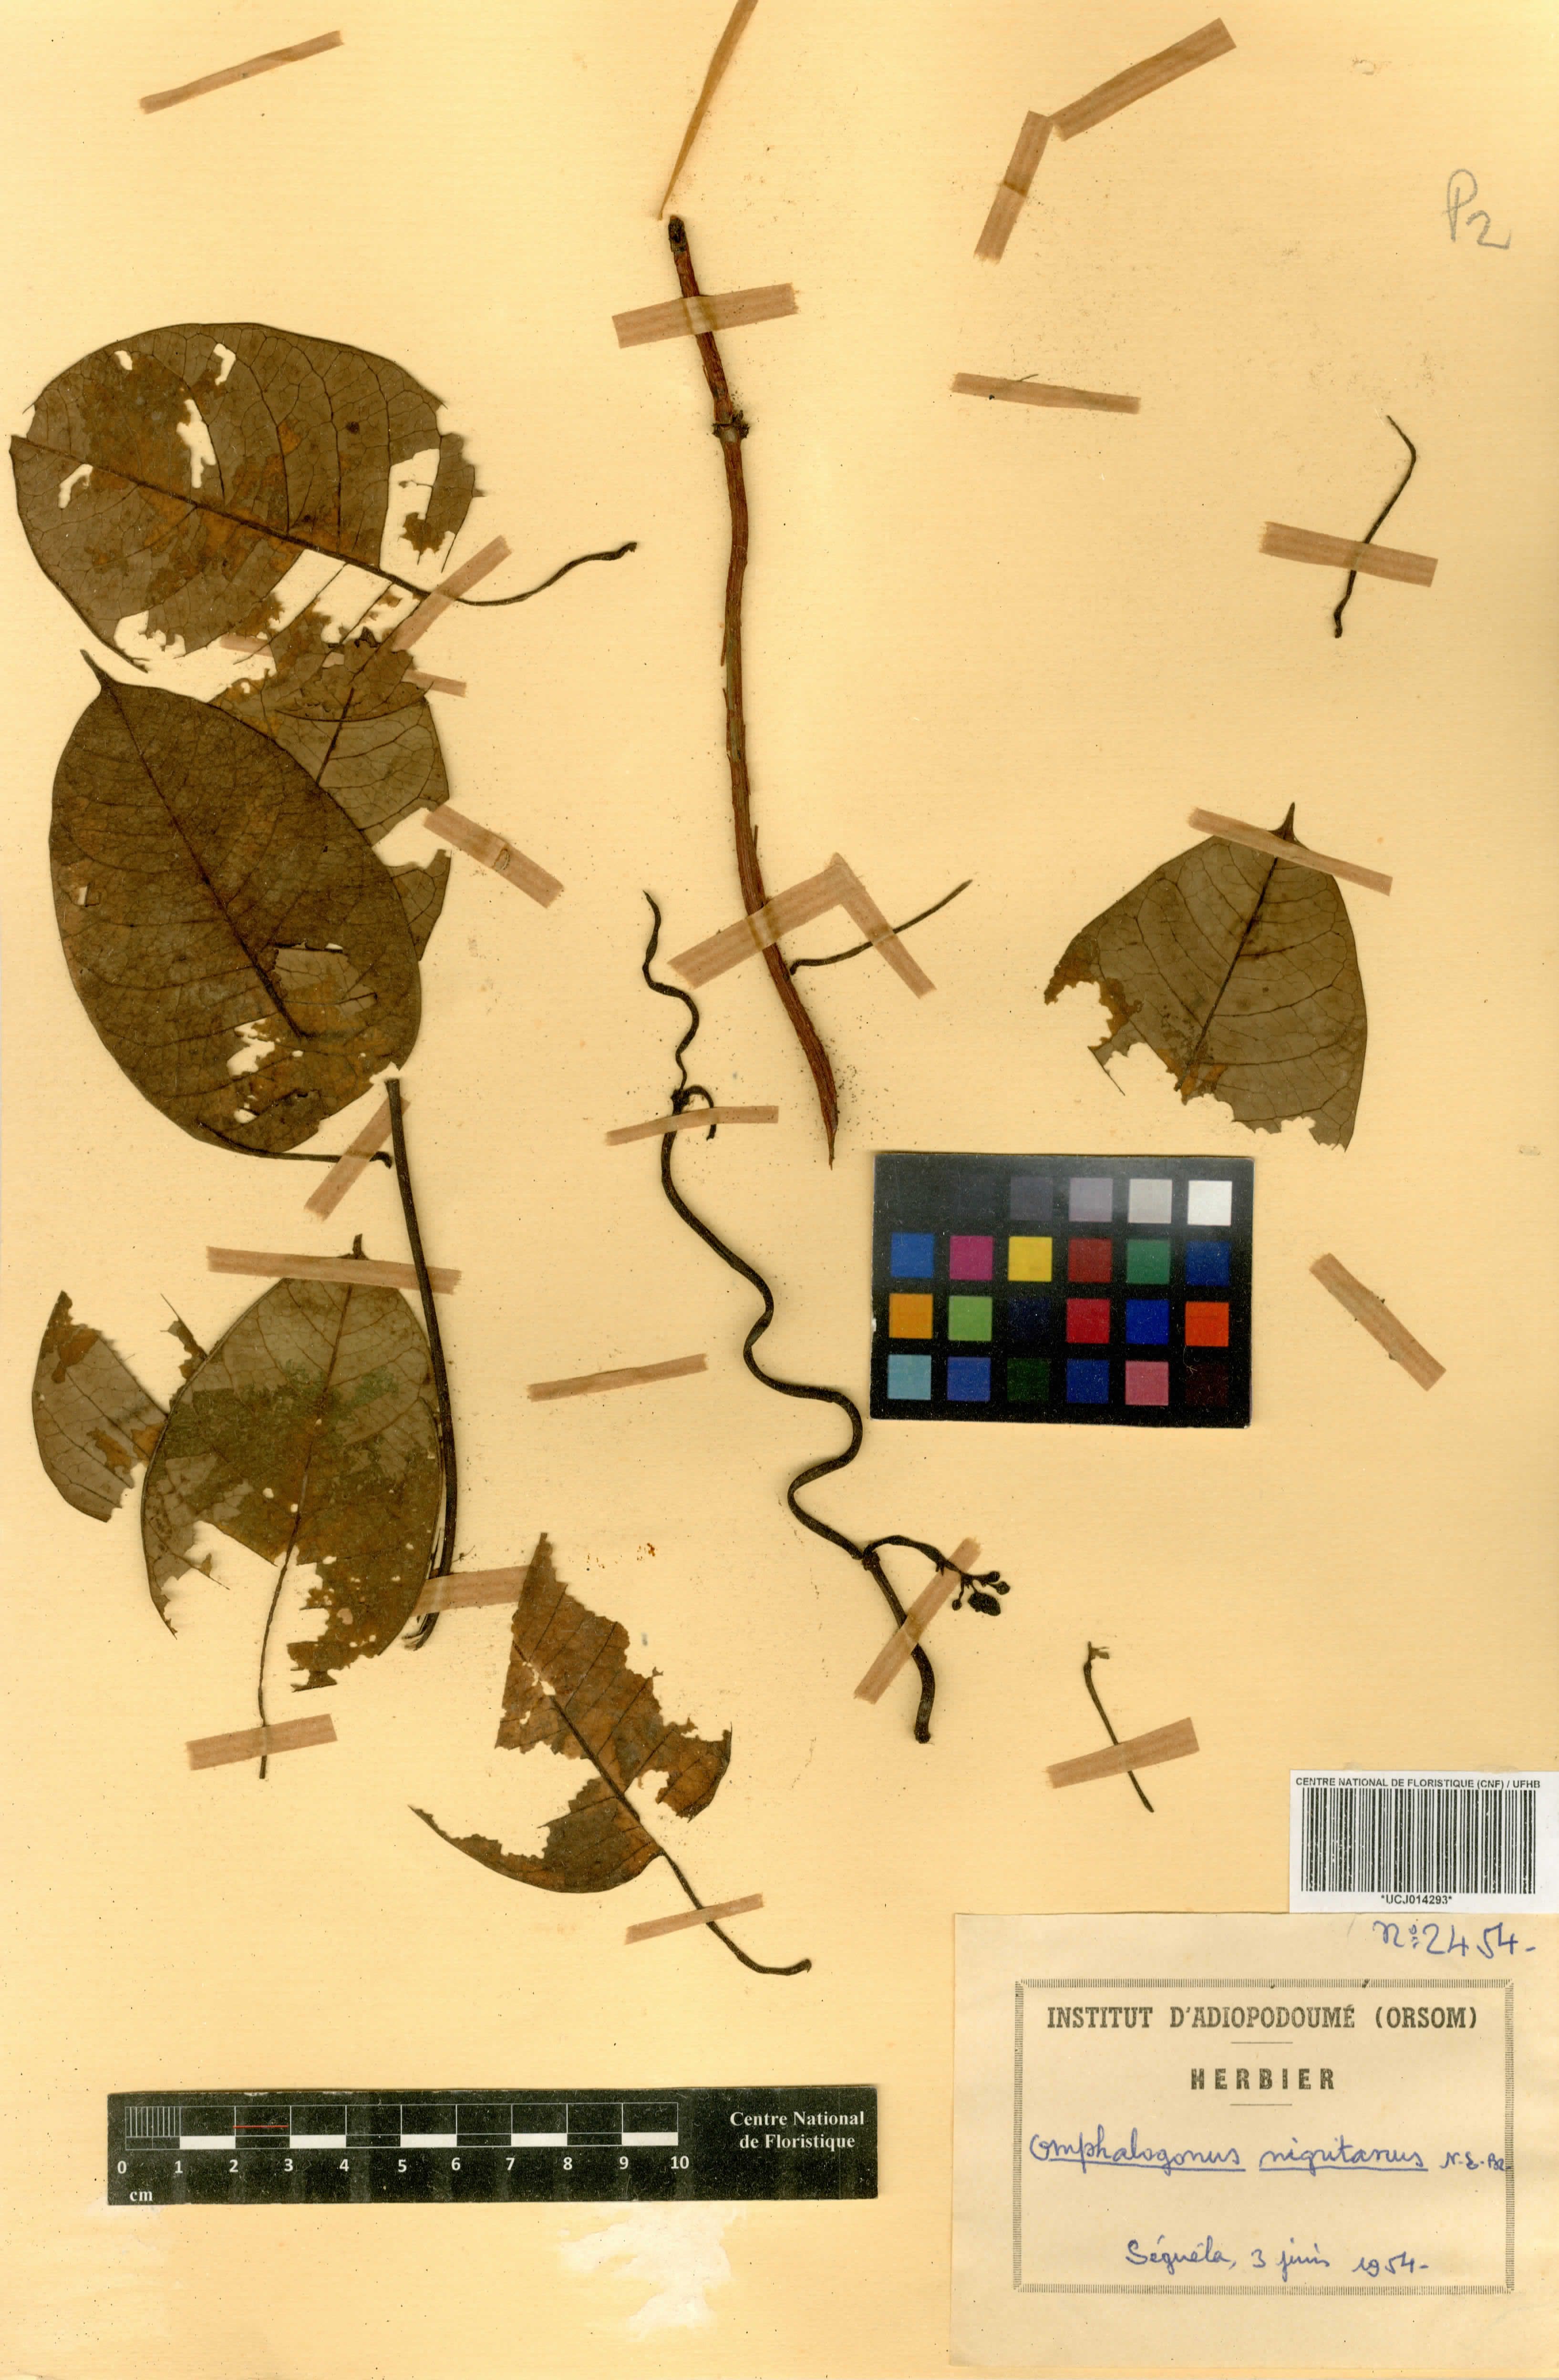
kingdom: Plantae
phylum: Tracheophyta
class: Magnoliopsida
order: Gentianales
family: Apocynaceae
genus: Cryptolepis
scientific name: Cryptolepis calophylla
